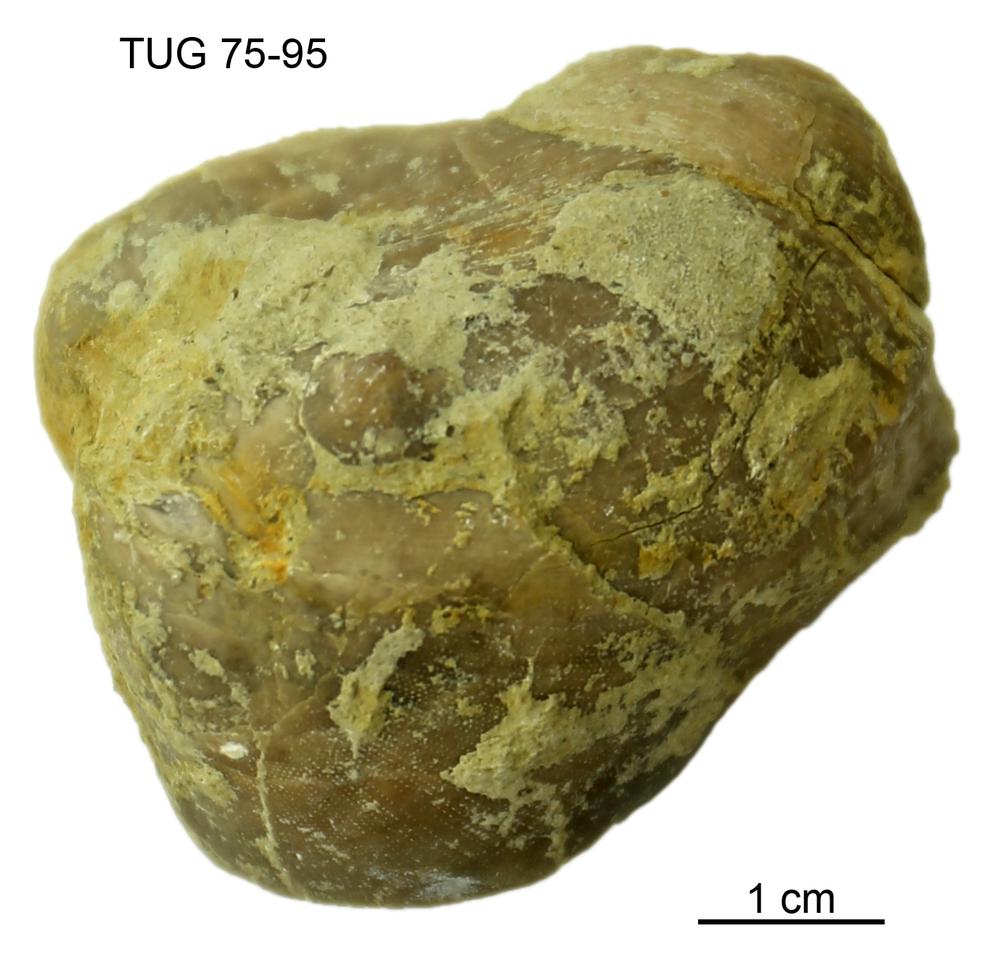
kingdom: Animalia
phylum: Brachiopoda
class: Craniata
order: Craniida
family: Craniidae
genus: Philhedra
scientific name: Philhedra
